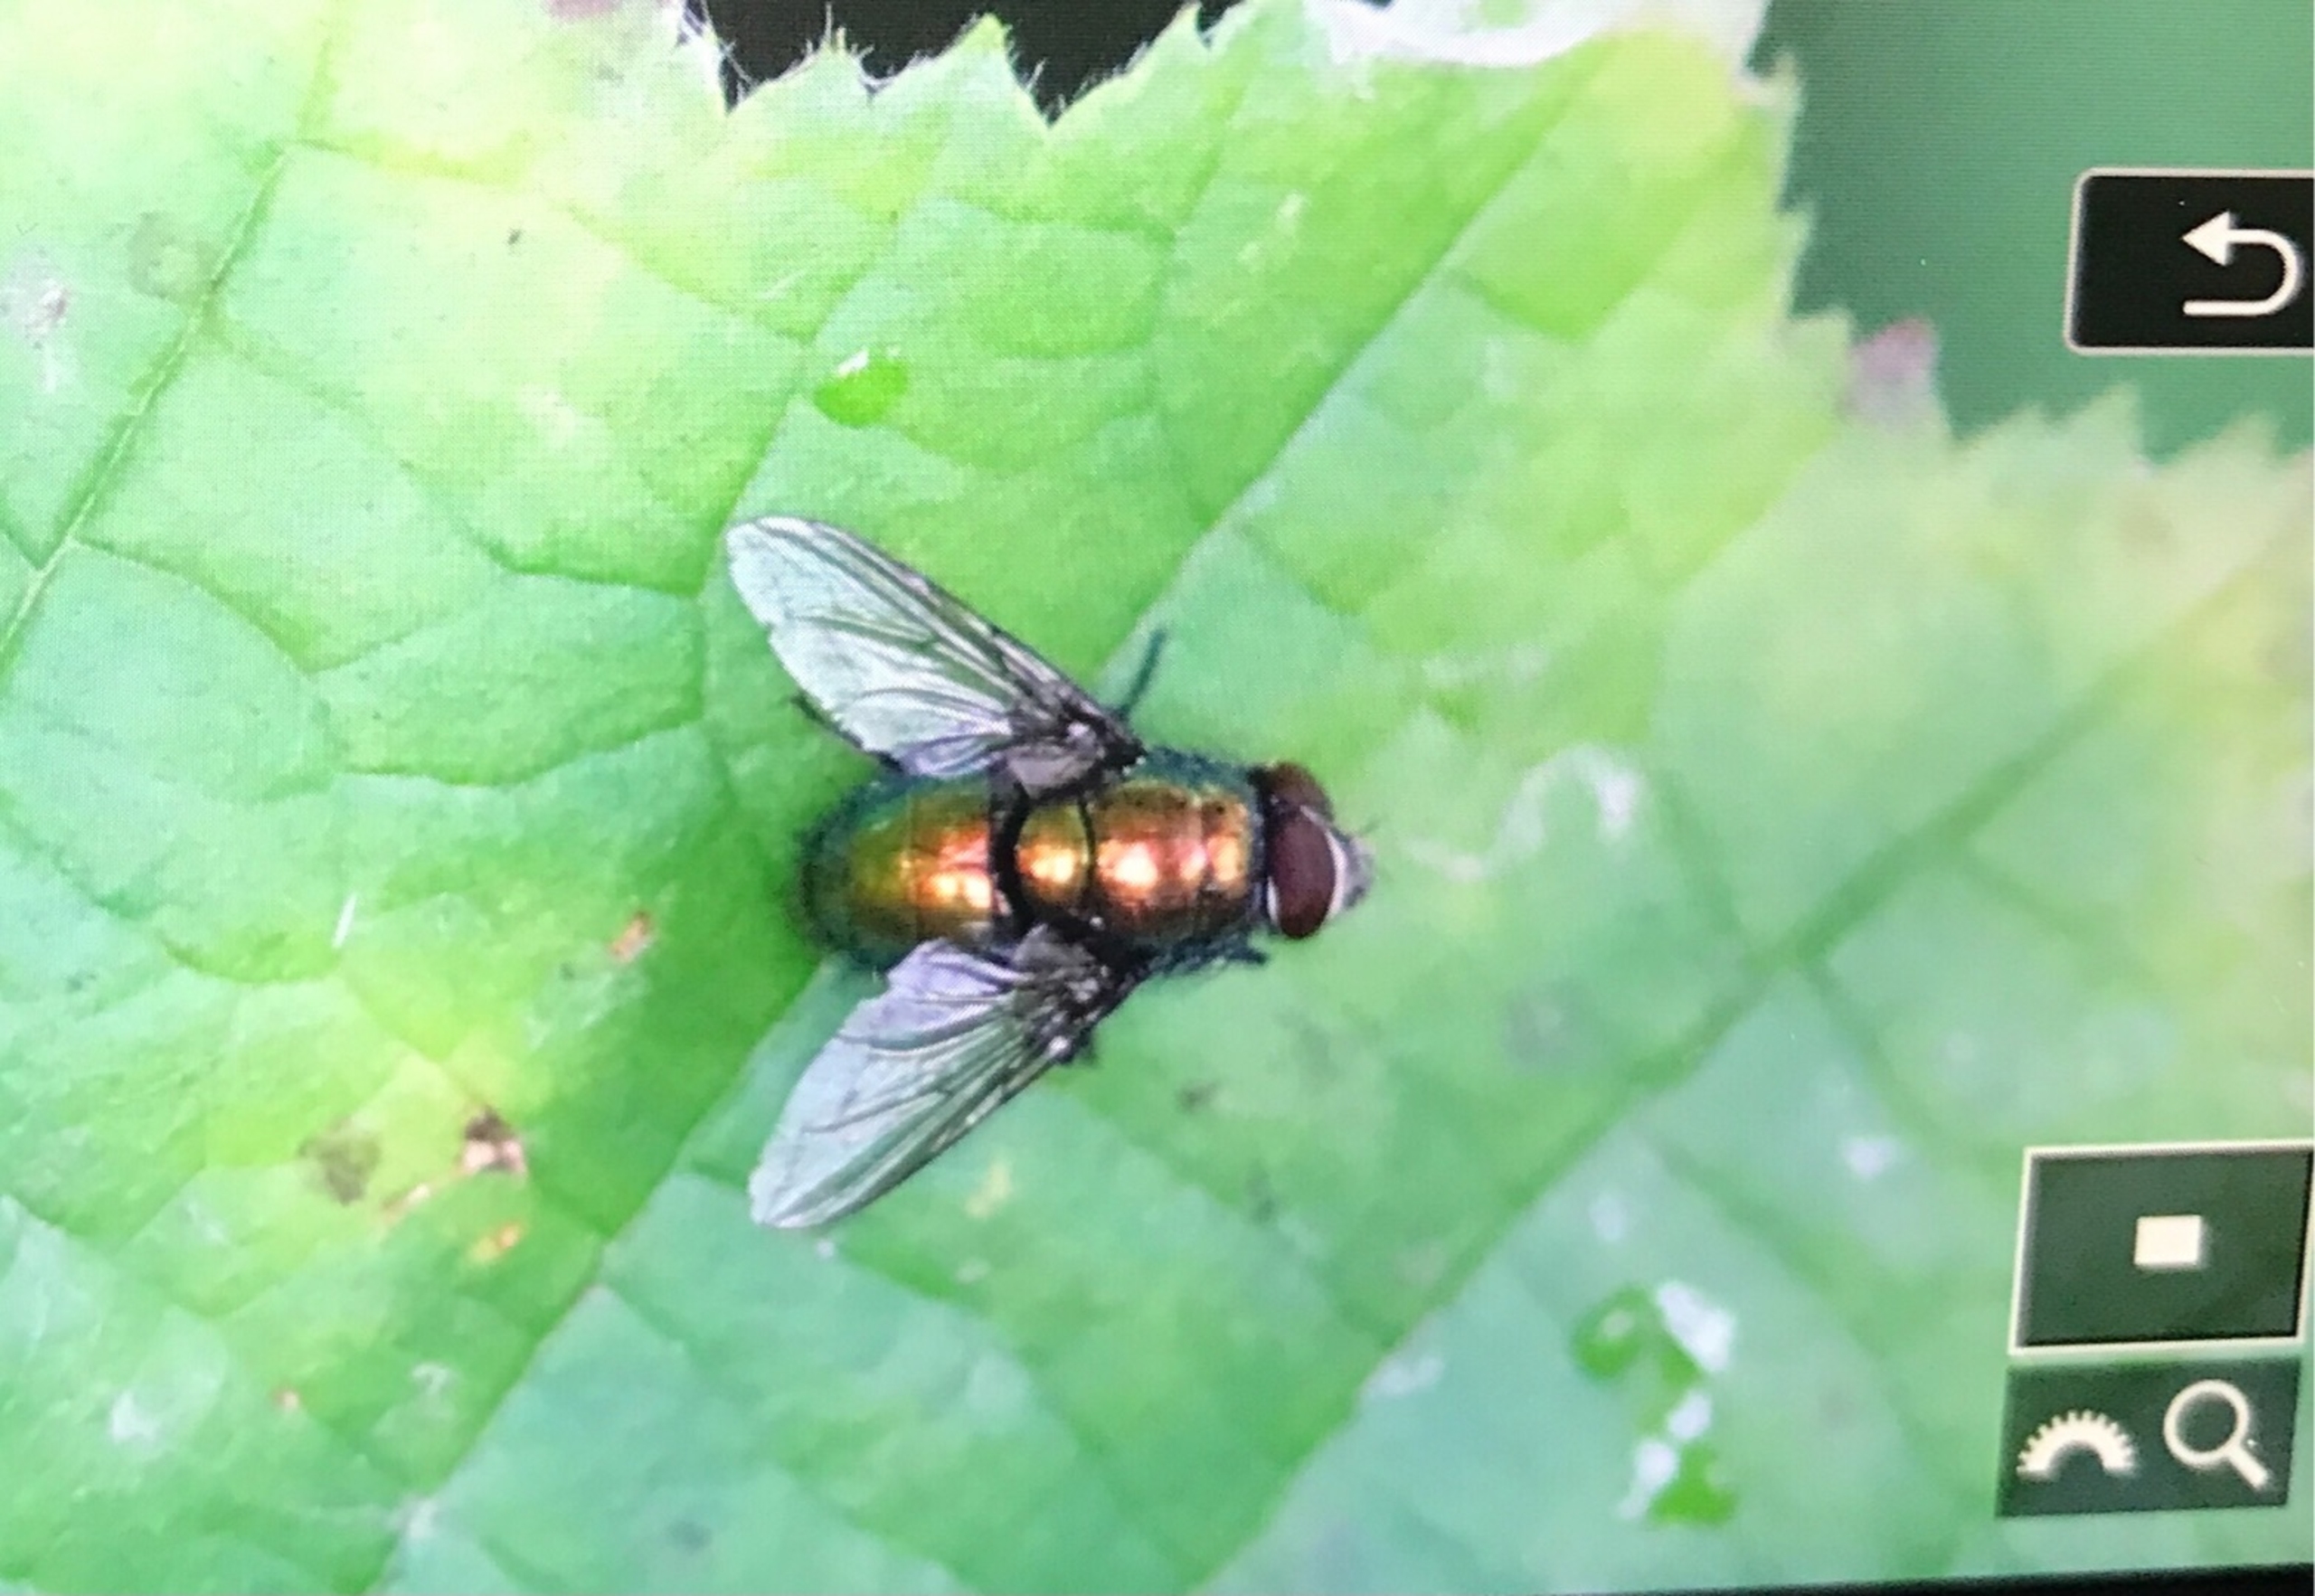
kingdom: Animalia
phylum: Arthropoda
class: Insecta
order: Diptera
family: Calliphoridae
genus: Lucilia
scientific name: Lucilia
